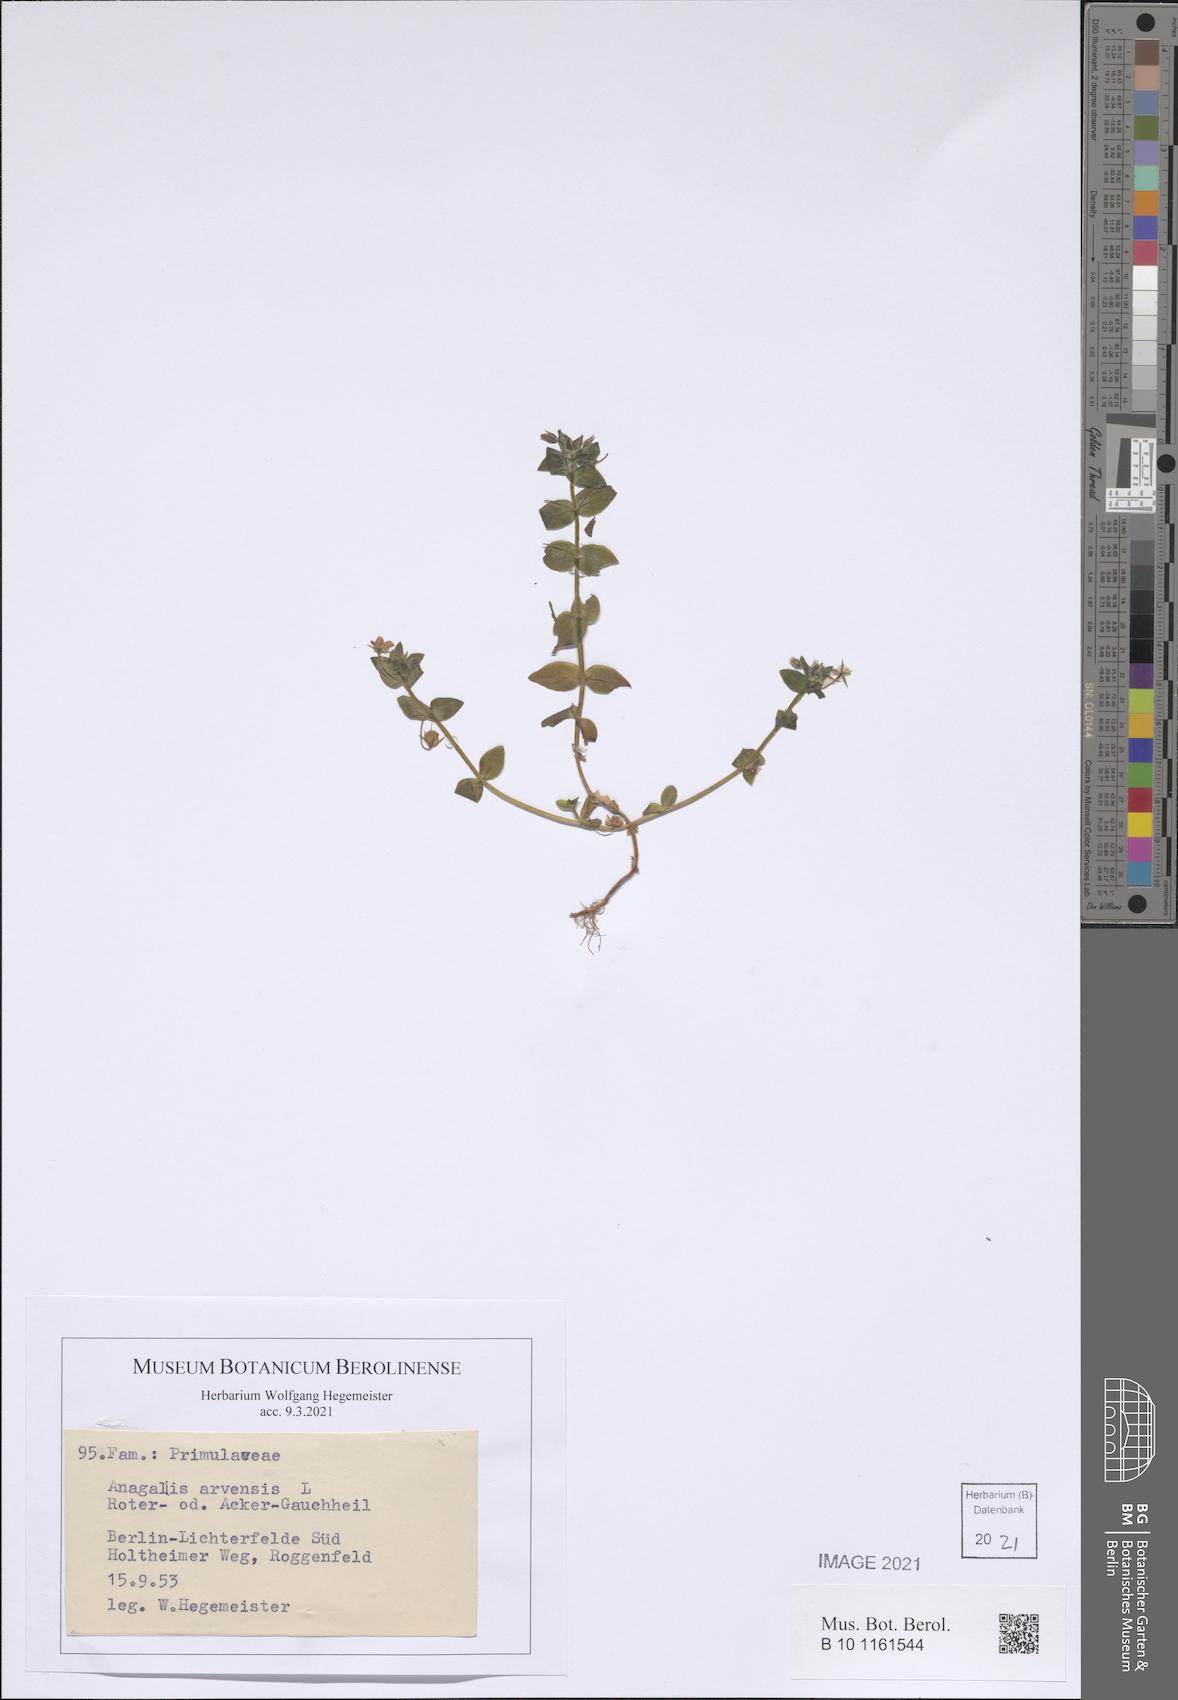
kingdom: Plantae
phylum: Tracheophyta
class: Magnoliopsida
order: Ericales
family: Primulaceae
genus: Lysimachia
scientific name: Lysimachia arvensis
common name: Scarlet pimpernel
